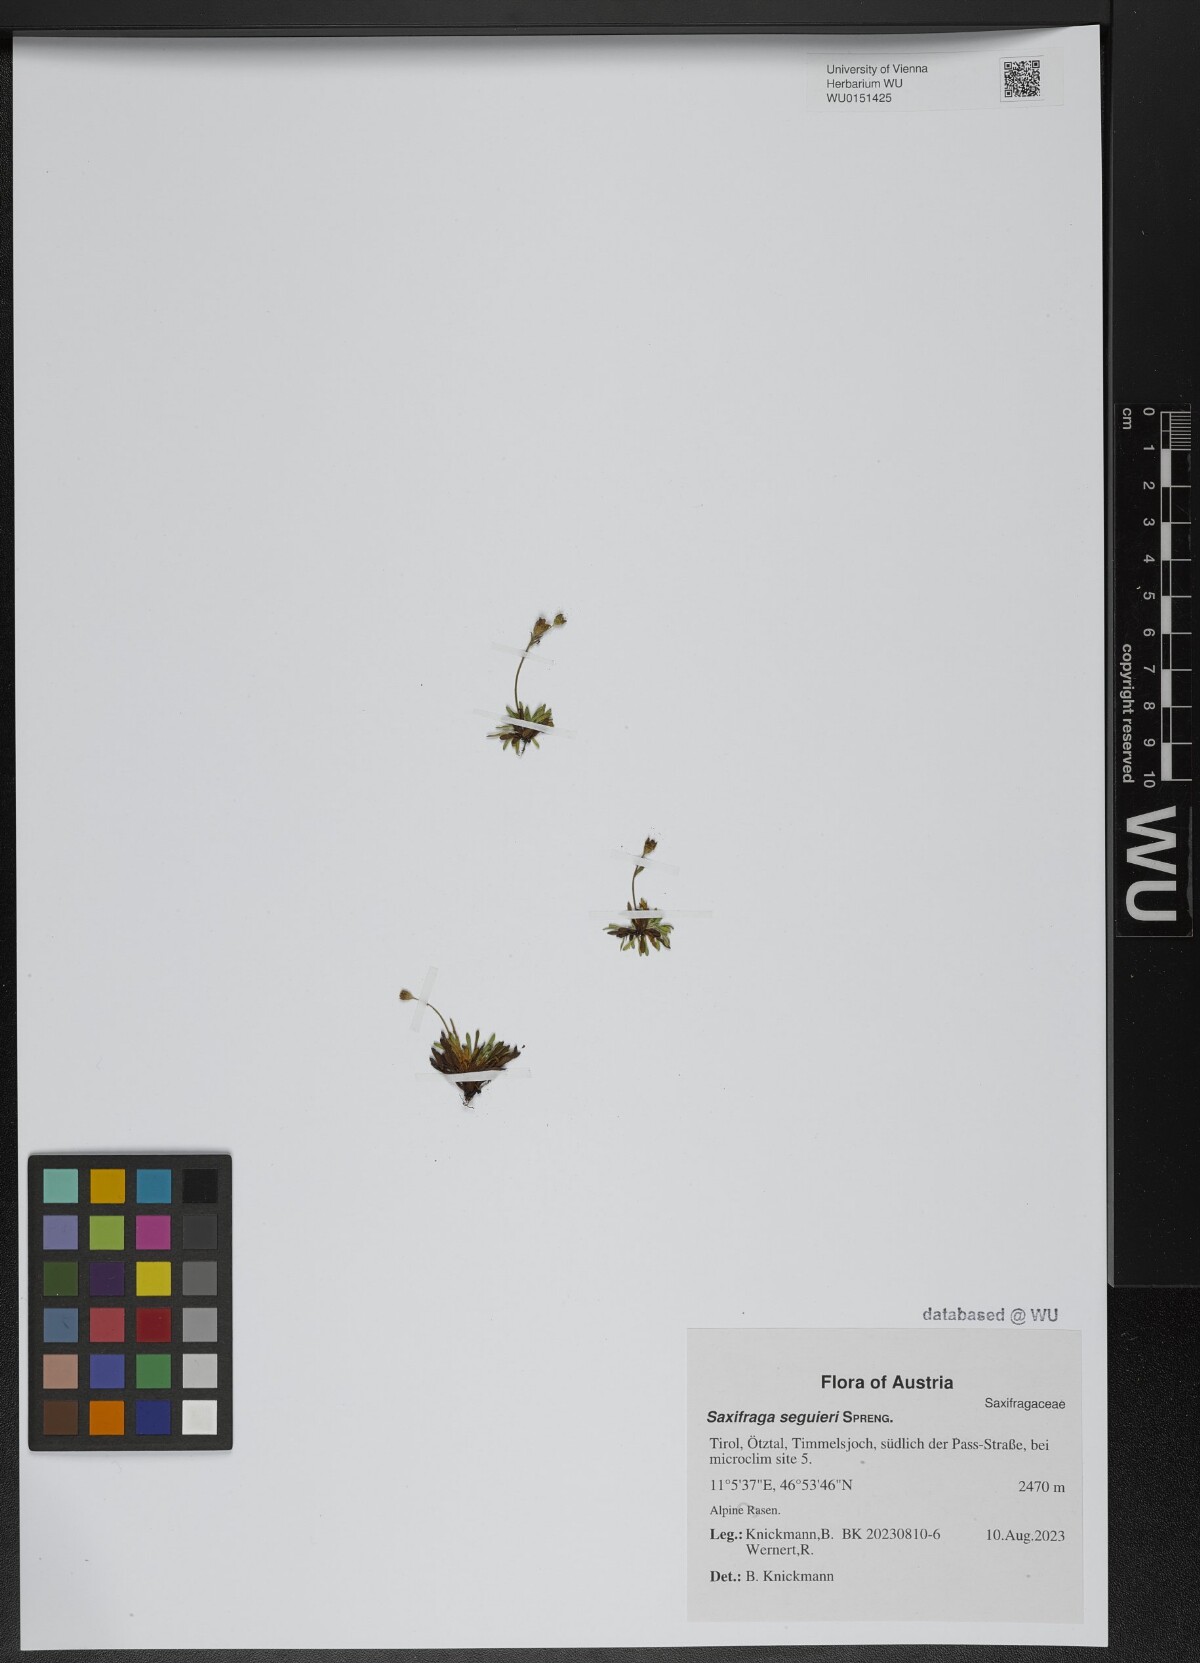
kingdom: Plantae
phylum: Tracheophyta
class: Magnoliopsida
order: Saxifragales
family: Saxifragaceae
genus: Saxifraga
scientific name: Saxifraga seguieri
